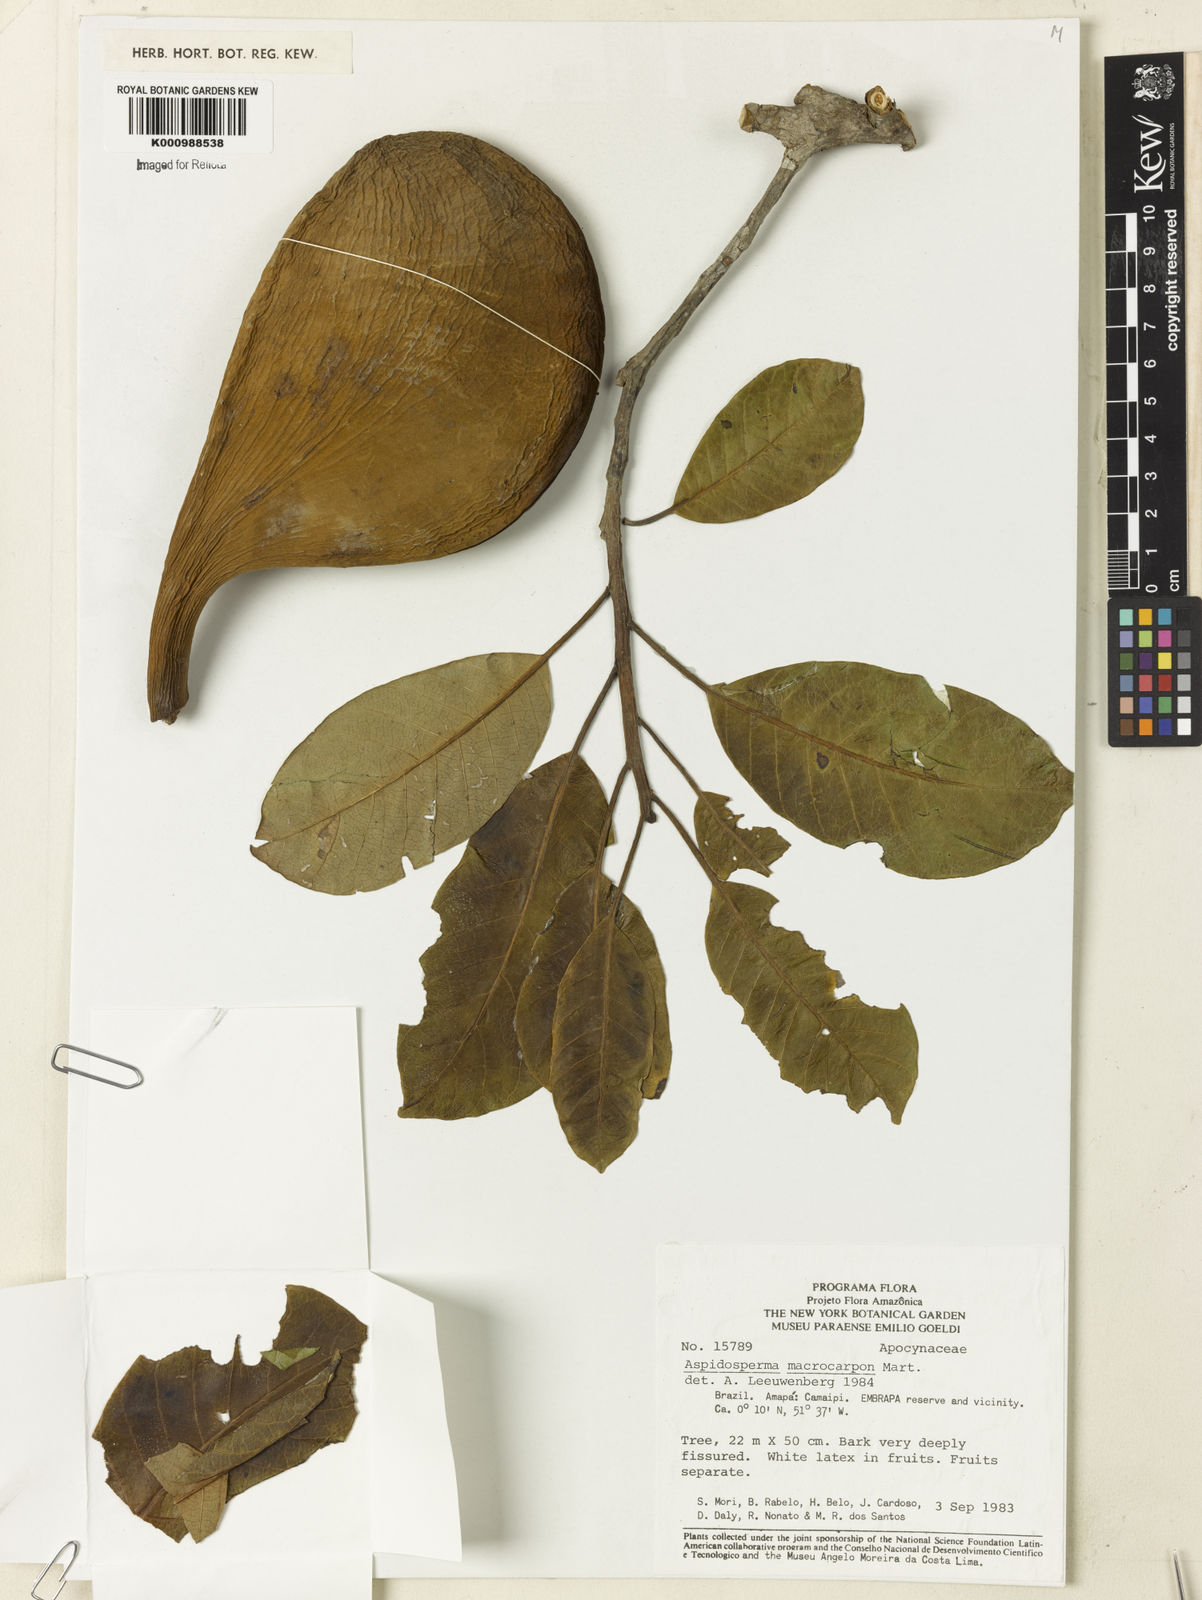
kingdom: Plantae
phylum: Tracheophyta
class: Magnoliopsida
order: Gentianales
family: Apocynaceae
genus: Aspidosperma
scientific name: Aspidosperma macrocarpon
